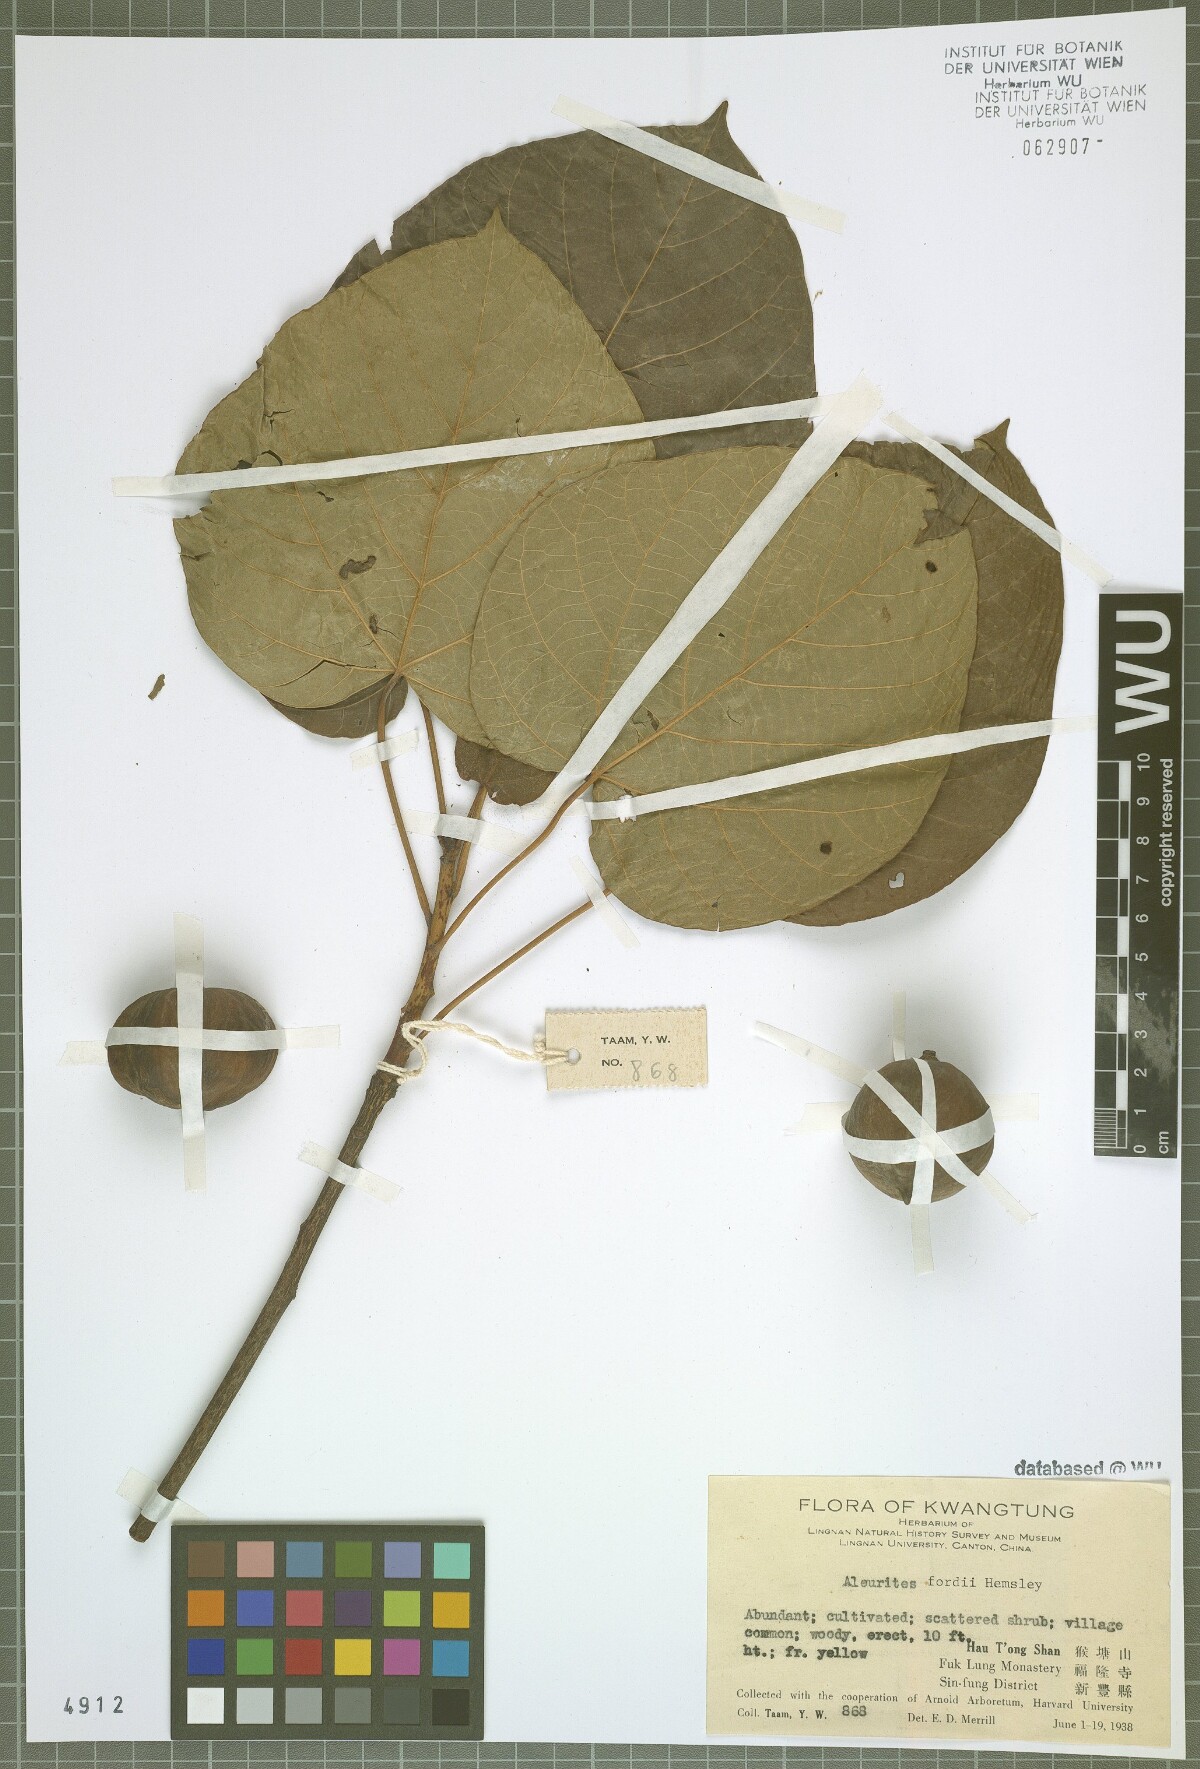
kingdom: Plantae
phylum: Tracheophyta
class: Magnoliopsida
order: Malpighiales
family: Euphorbiaceae
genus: Vernicia
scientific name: Vernicia fordii
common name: Tungoil tree
